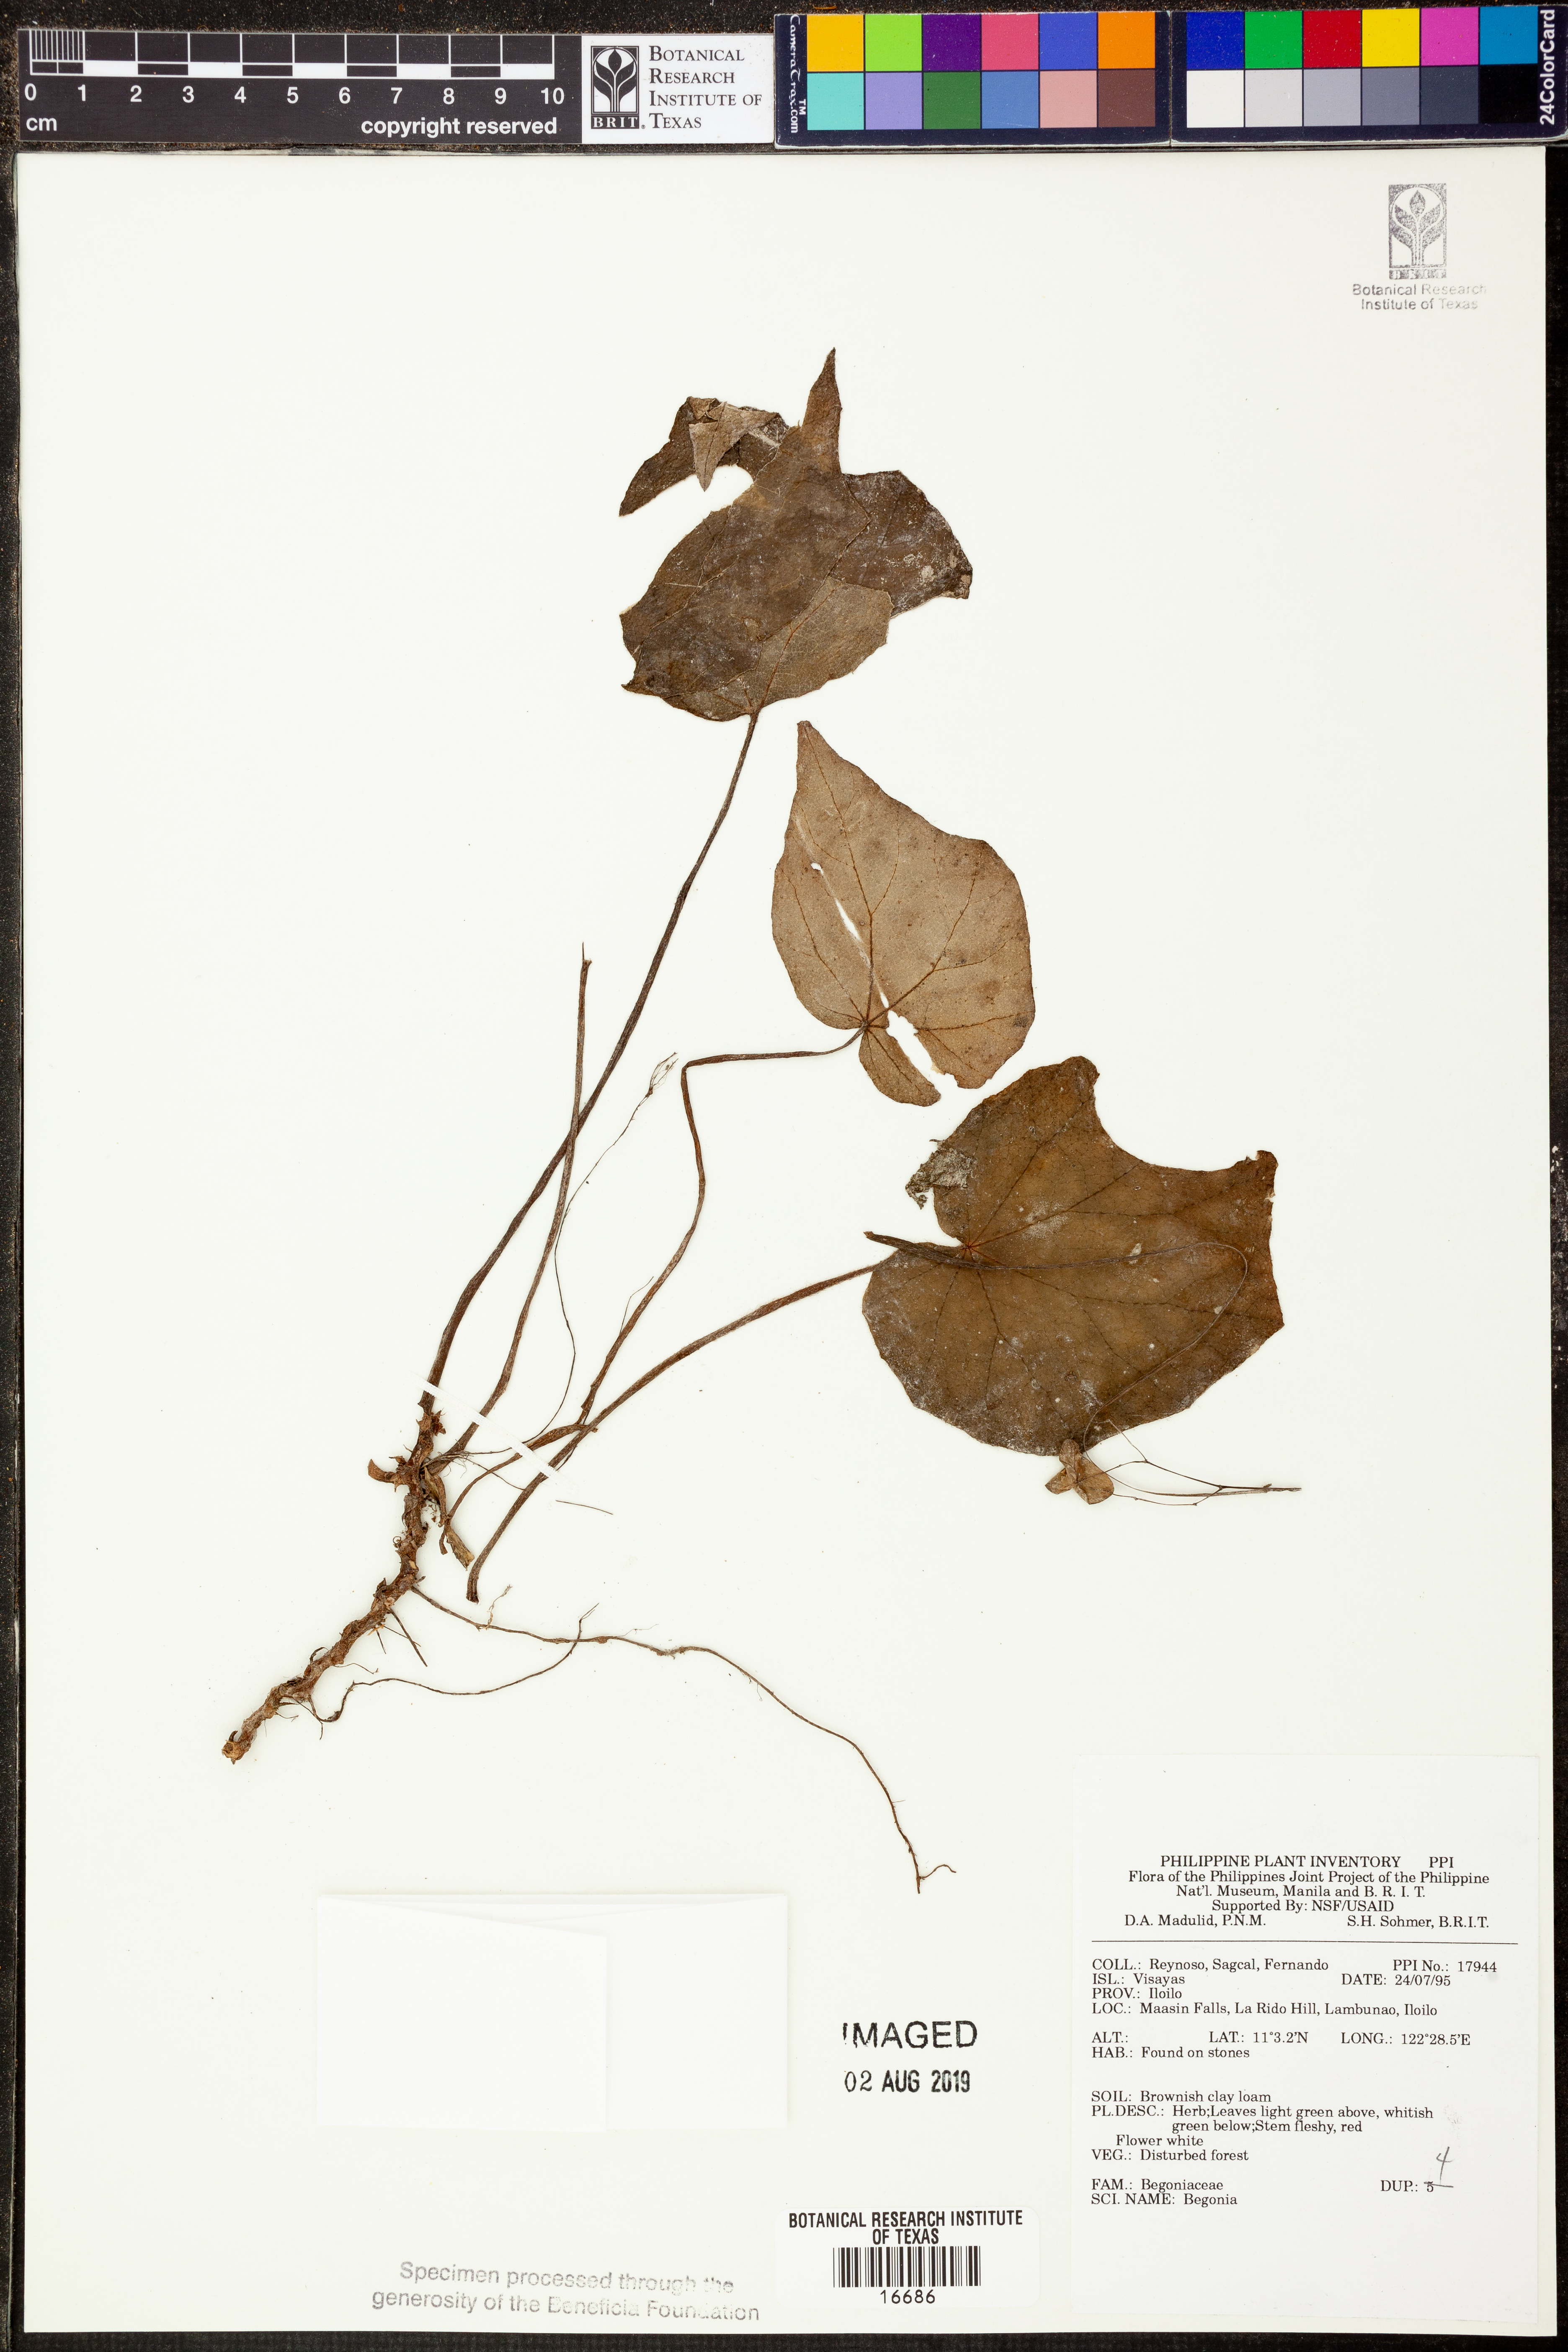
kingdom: Plantae
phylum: Tracheophyta
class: Magnoliopsida
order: Cucurbitales
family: Begoniaceae
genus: Begonia
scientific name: Begonia
